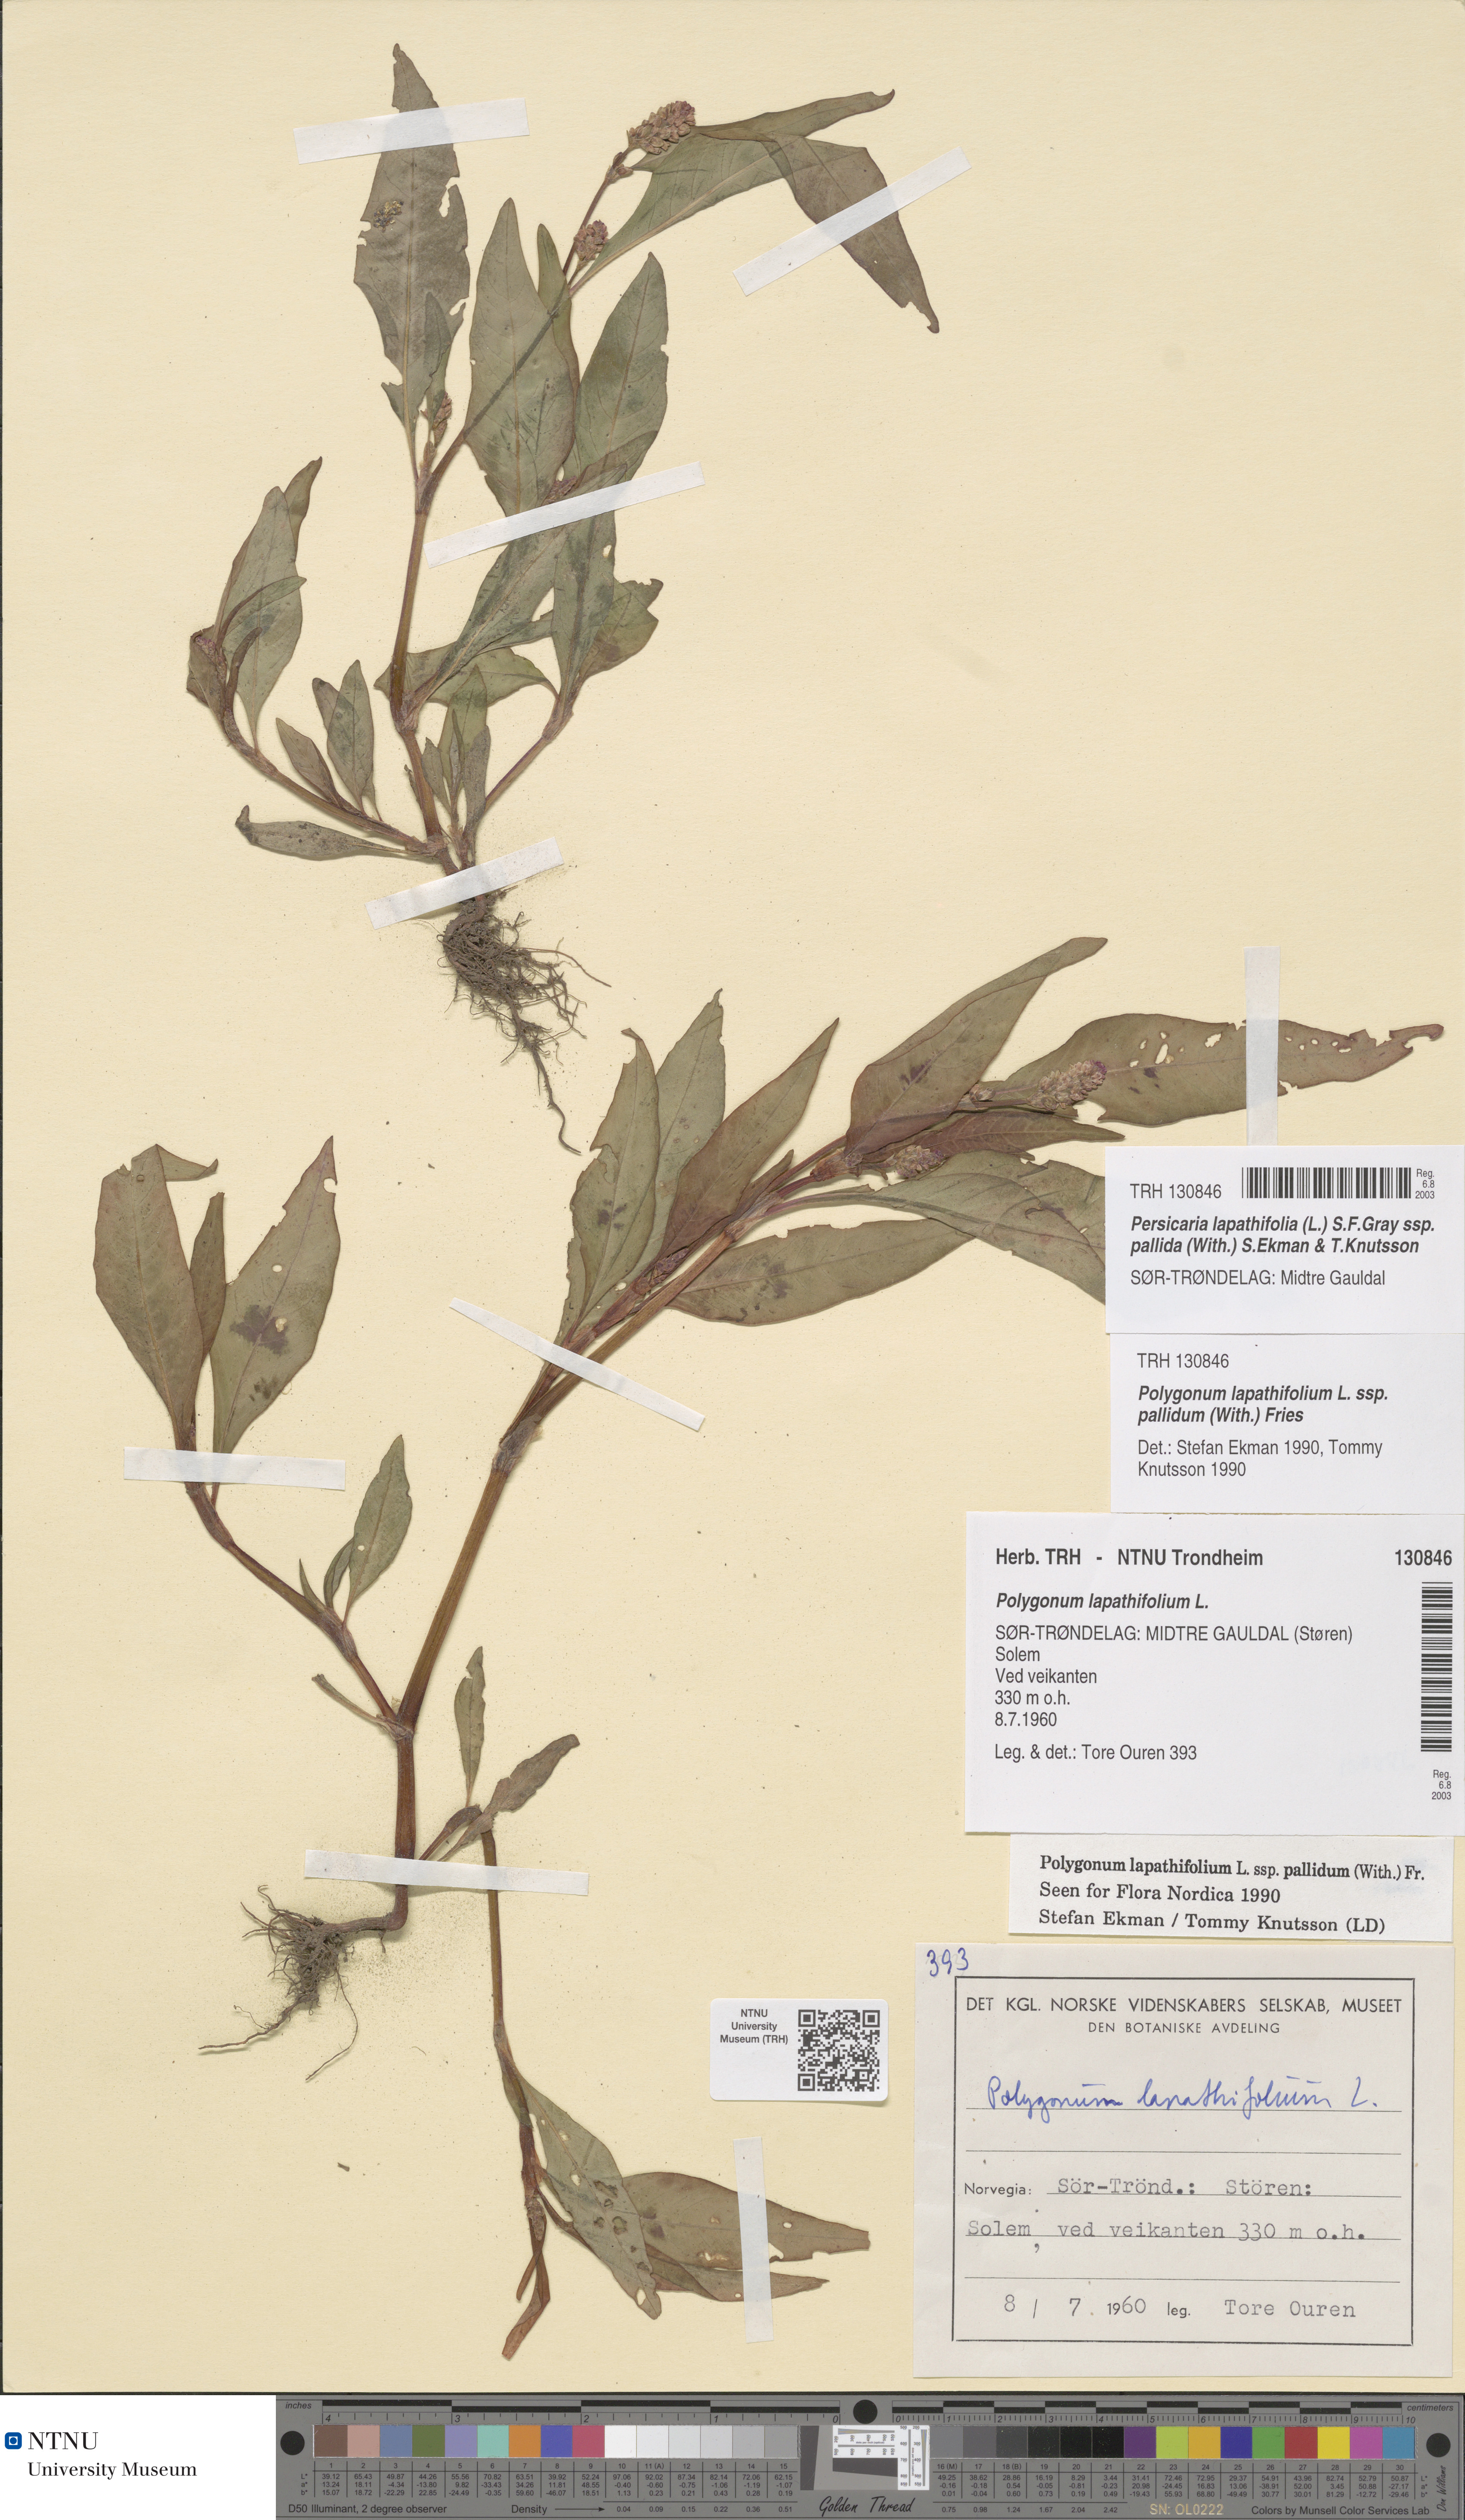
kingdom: Plantae
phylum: Tracheophyta
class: Magnoliopsida
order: Caryophyllales
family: Polygonaceae
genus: Persicaria
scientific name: Persicaria lapathifolia
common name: Curlytop knotweed
